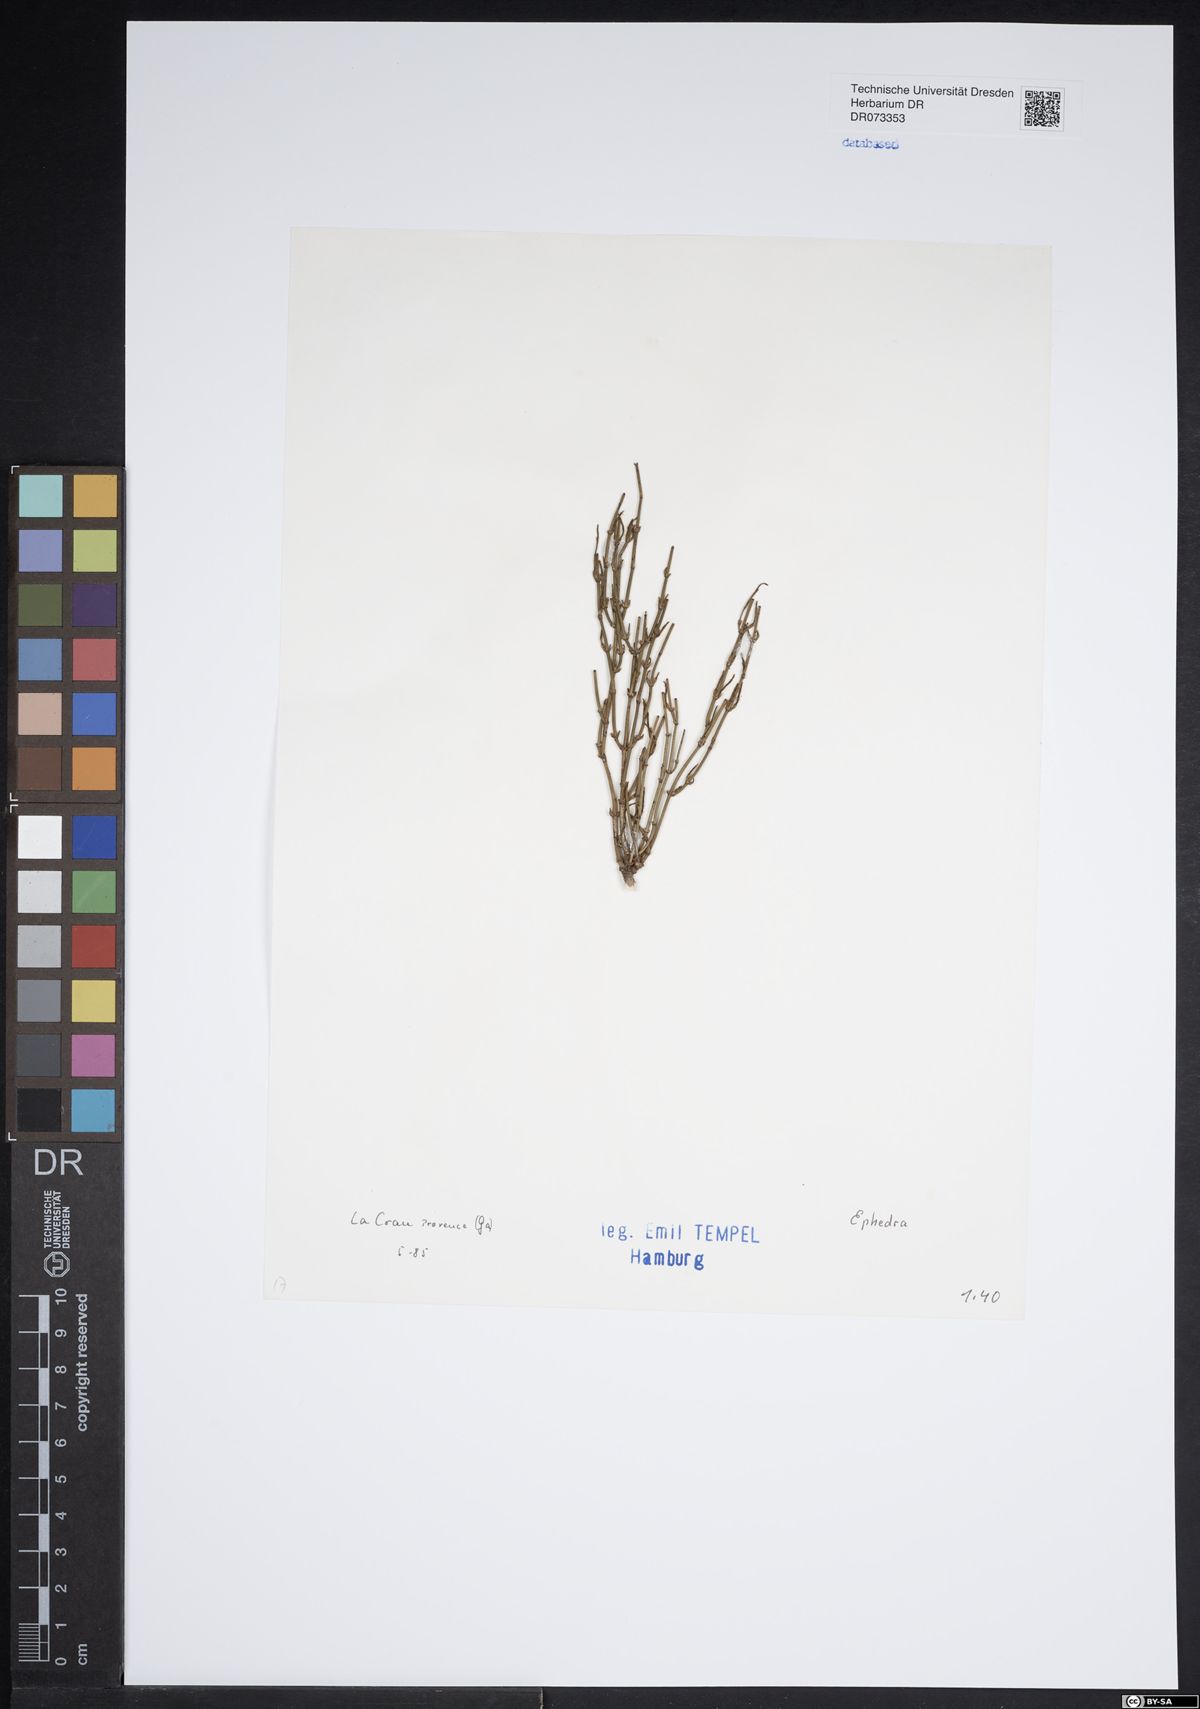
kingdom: Plantae
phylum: Tracheophyta
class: Gnetopsida
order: Ephedrales
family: Ephedraceae
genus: Ephedra
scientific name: Ephedra
